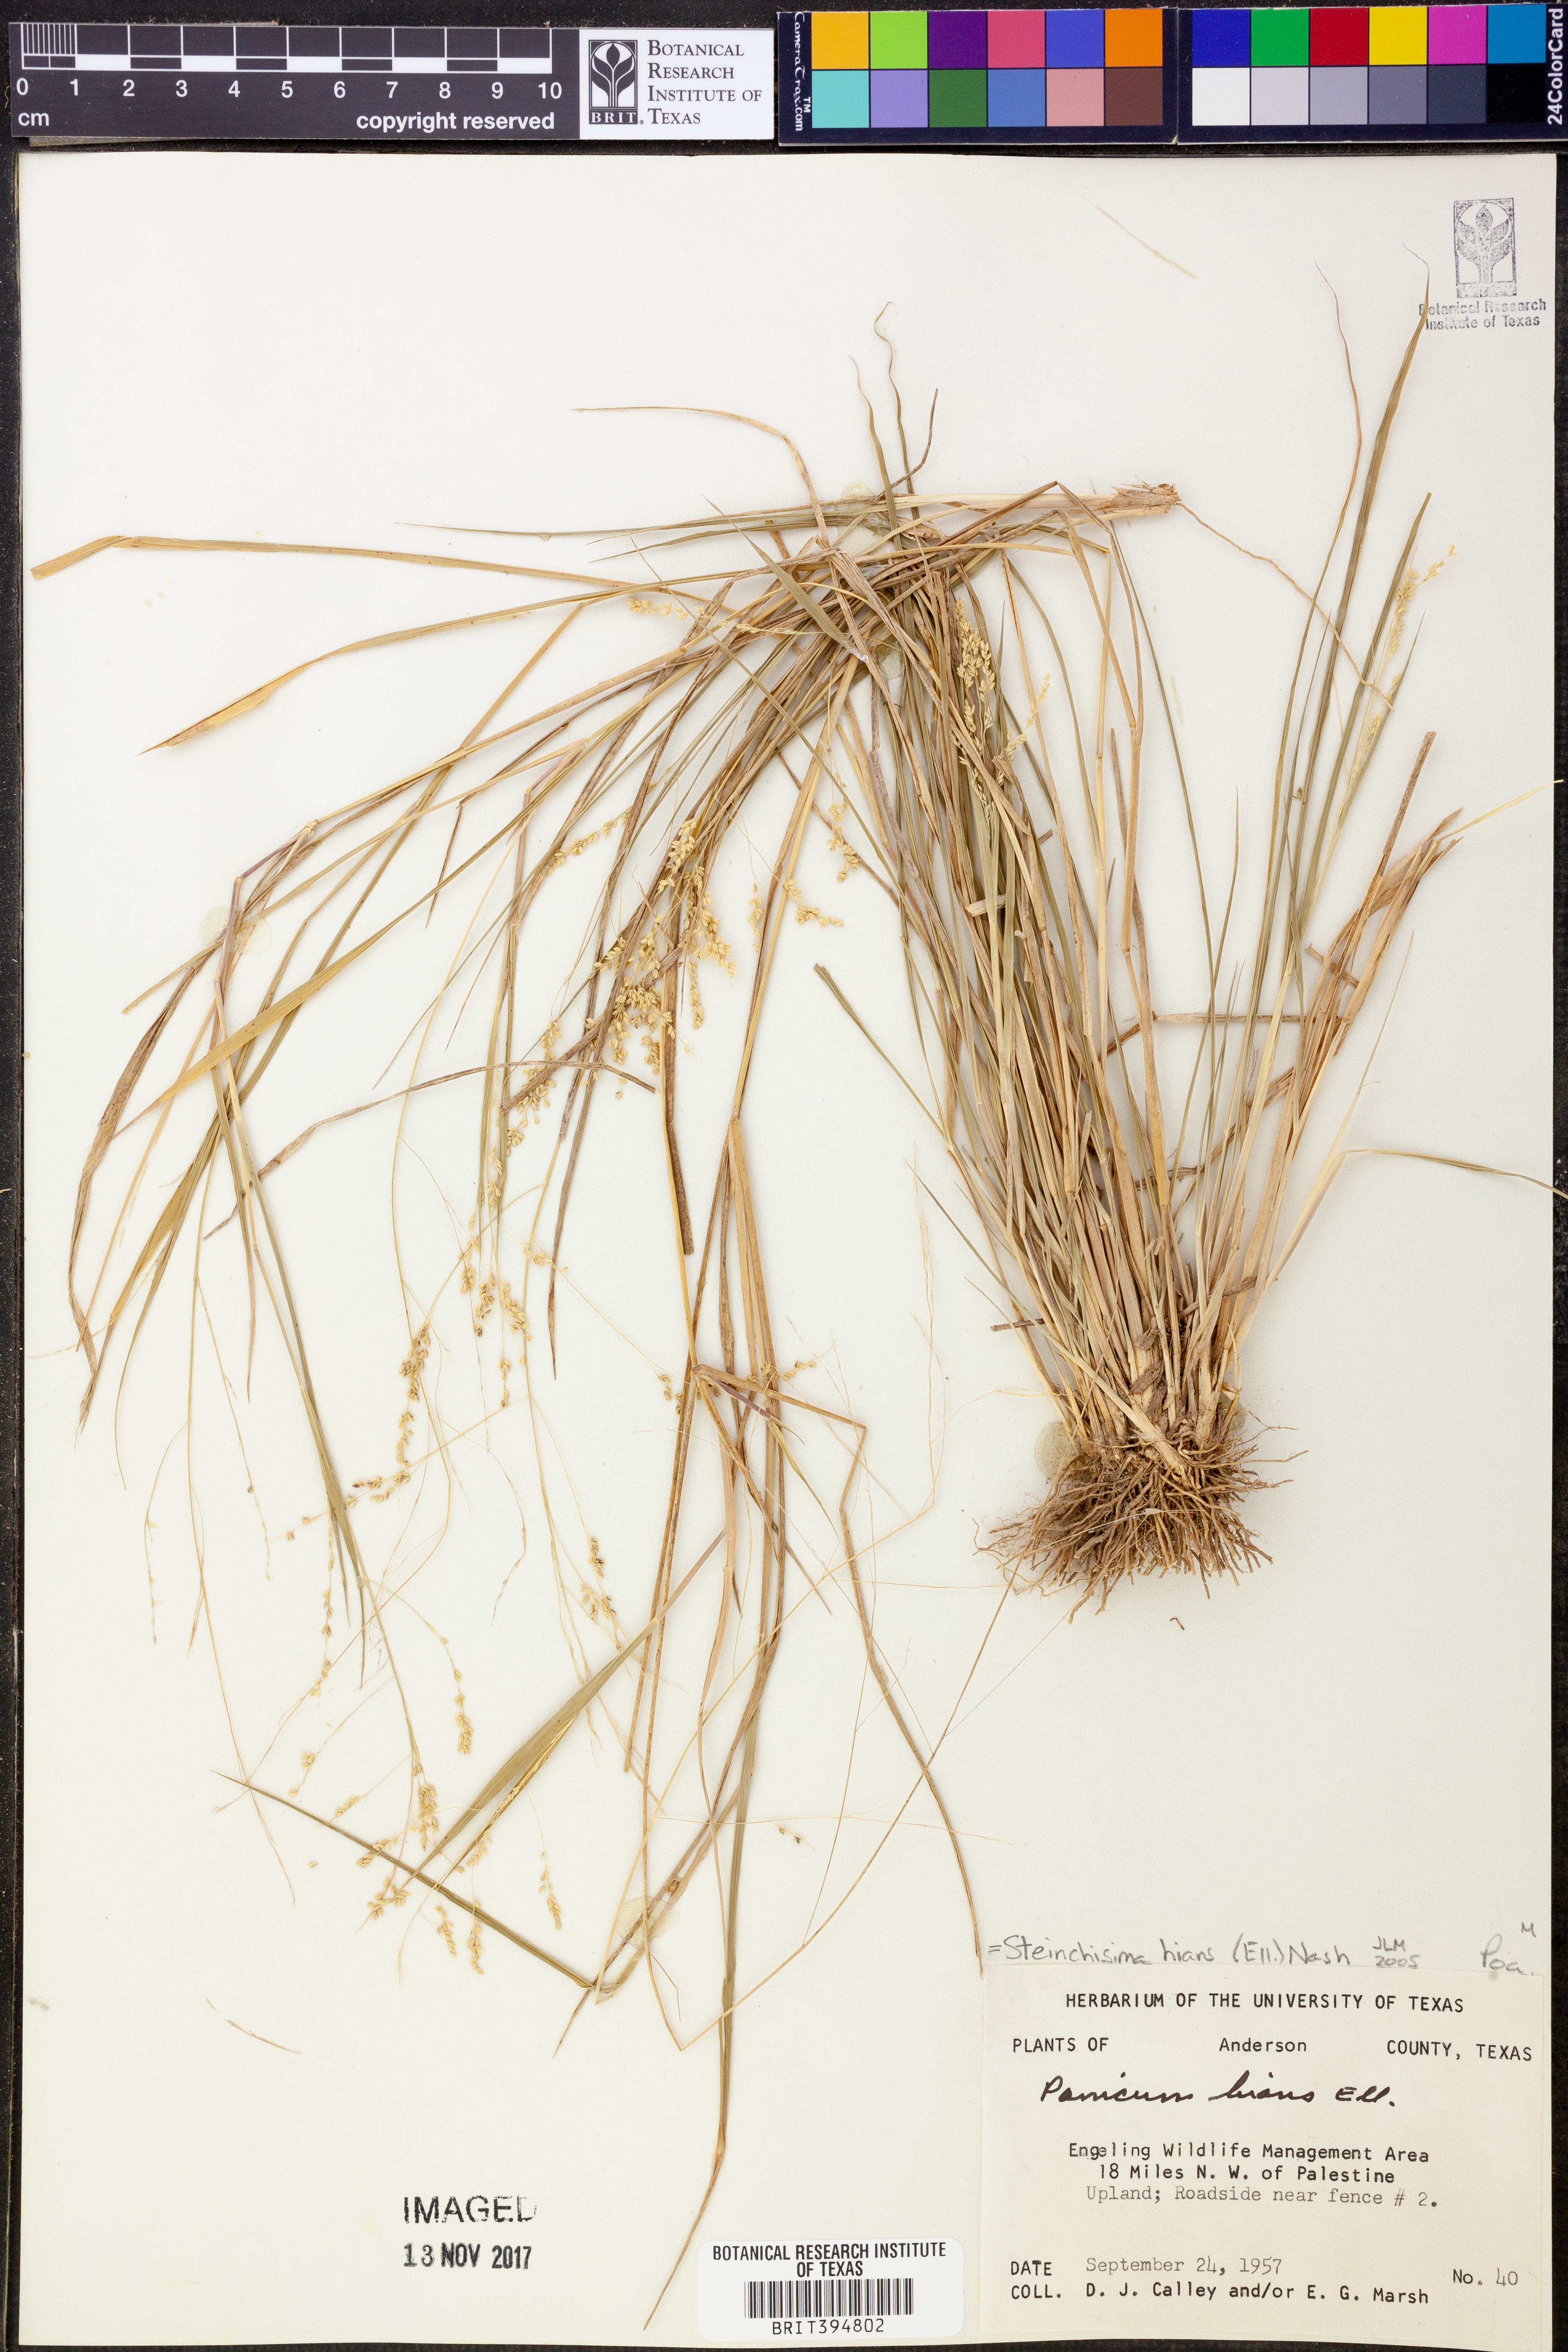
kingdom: Plantae
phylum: Tracheophyta
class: Liliopsida
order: Poales
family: Poaceae
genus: Steinchisma
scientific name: Steinchisma hians
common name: Gaping panic grass
